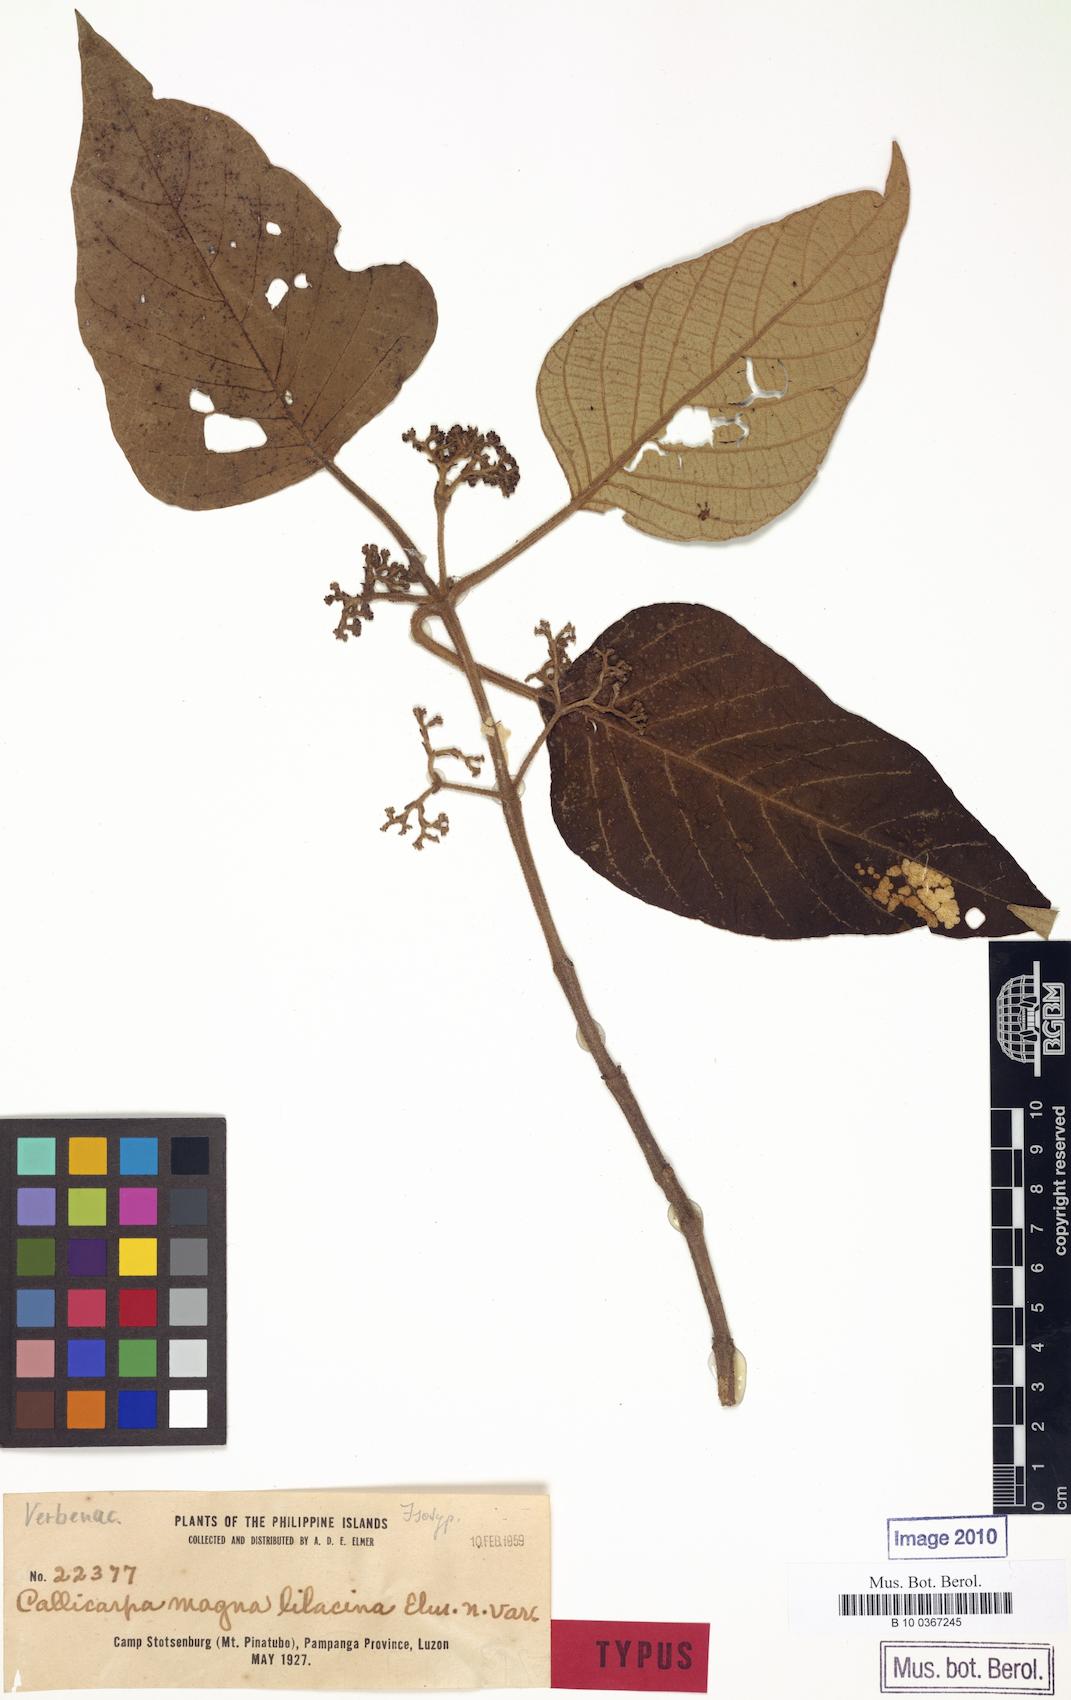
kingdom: Plantae
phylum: Tracheophyta
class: Magnoliopsida
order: Lamiales
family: Lamiaceae
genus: Callicarpa
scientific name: Callicarpa arborea
